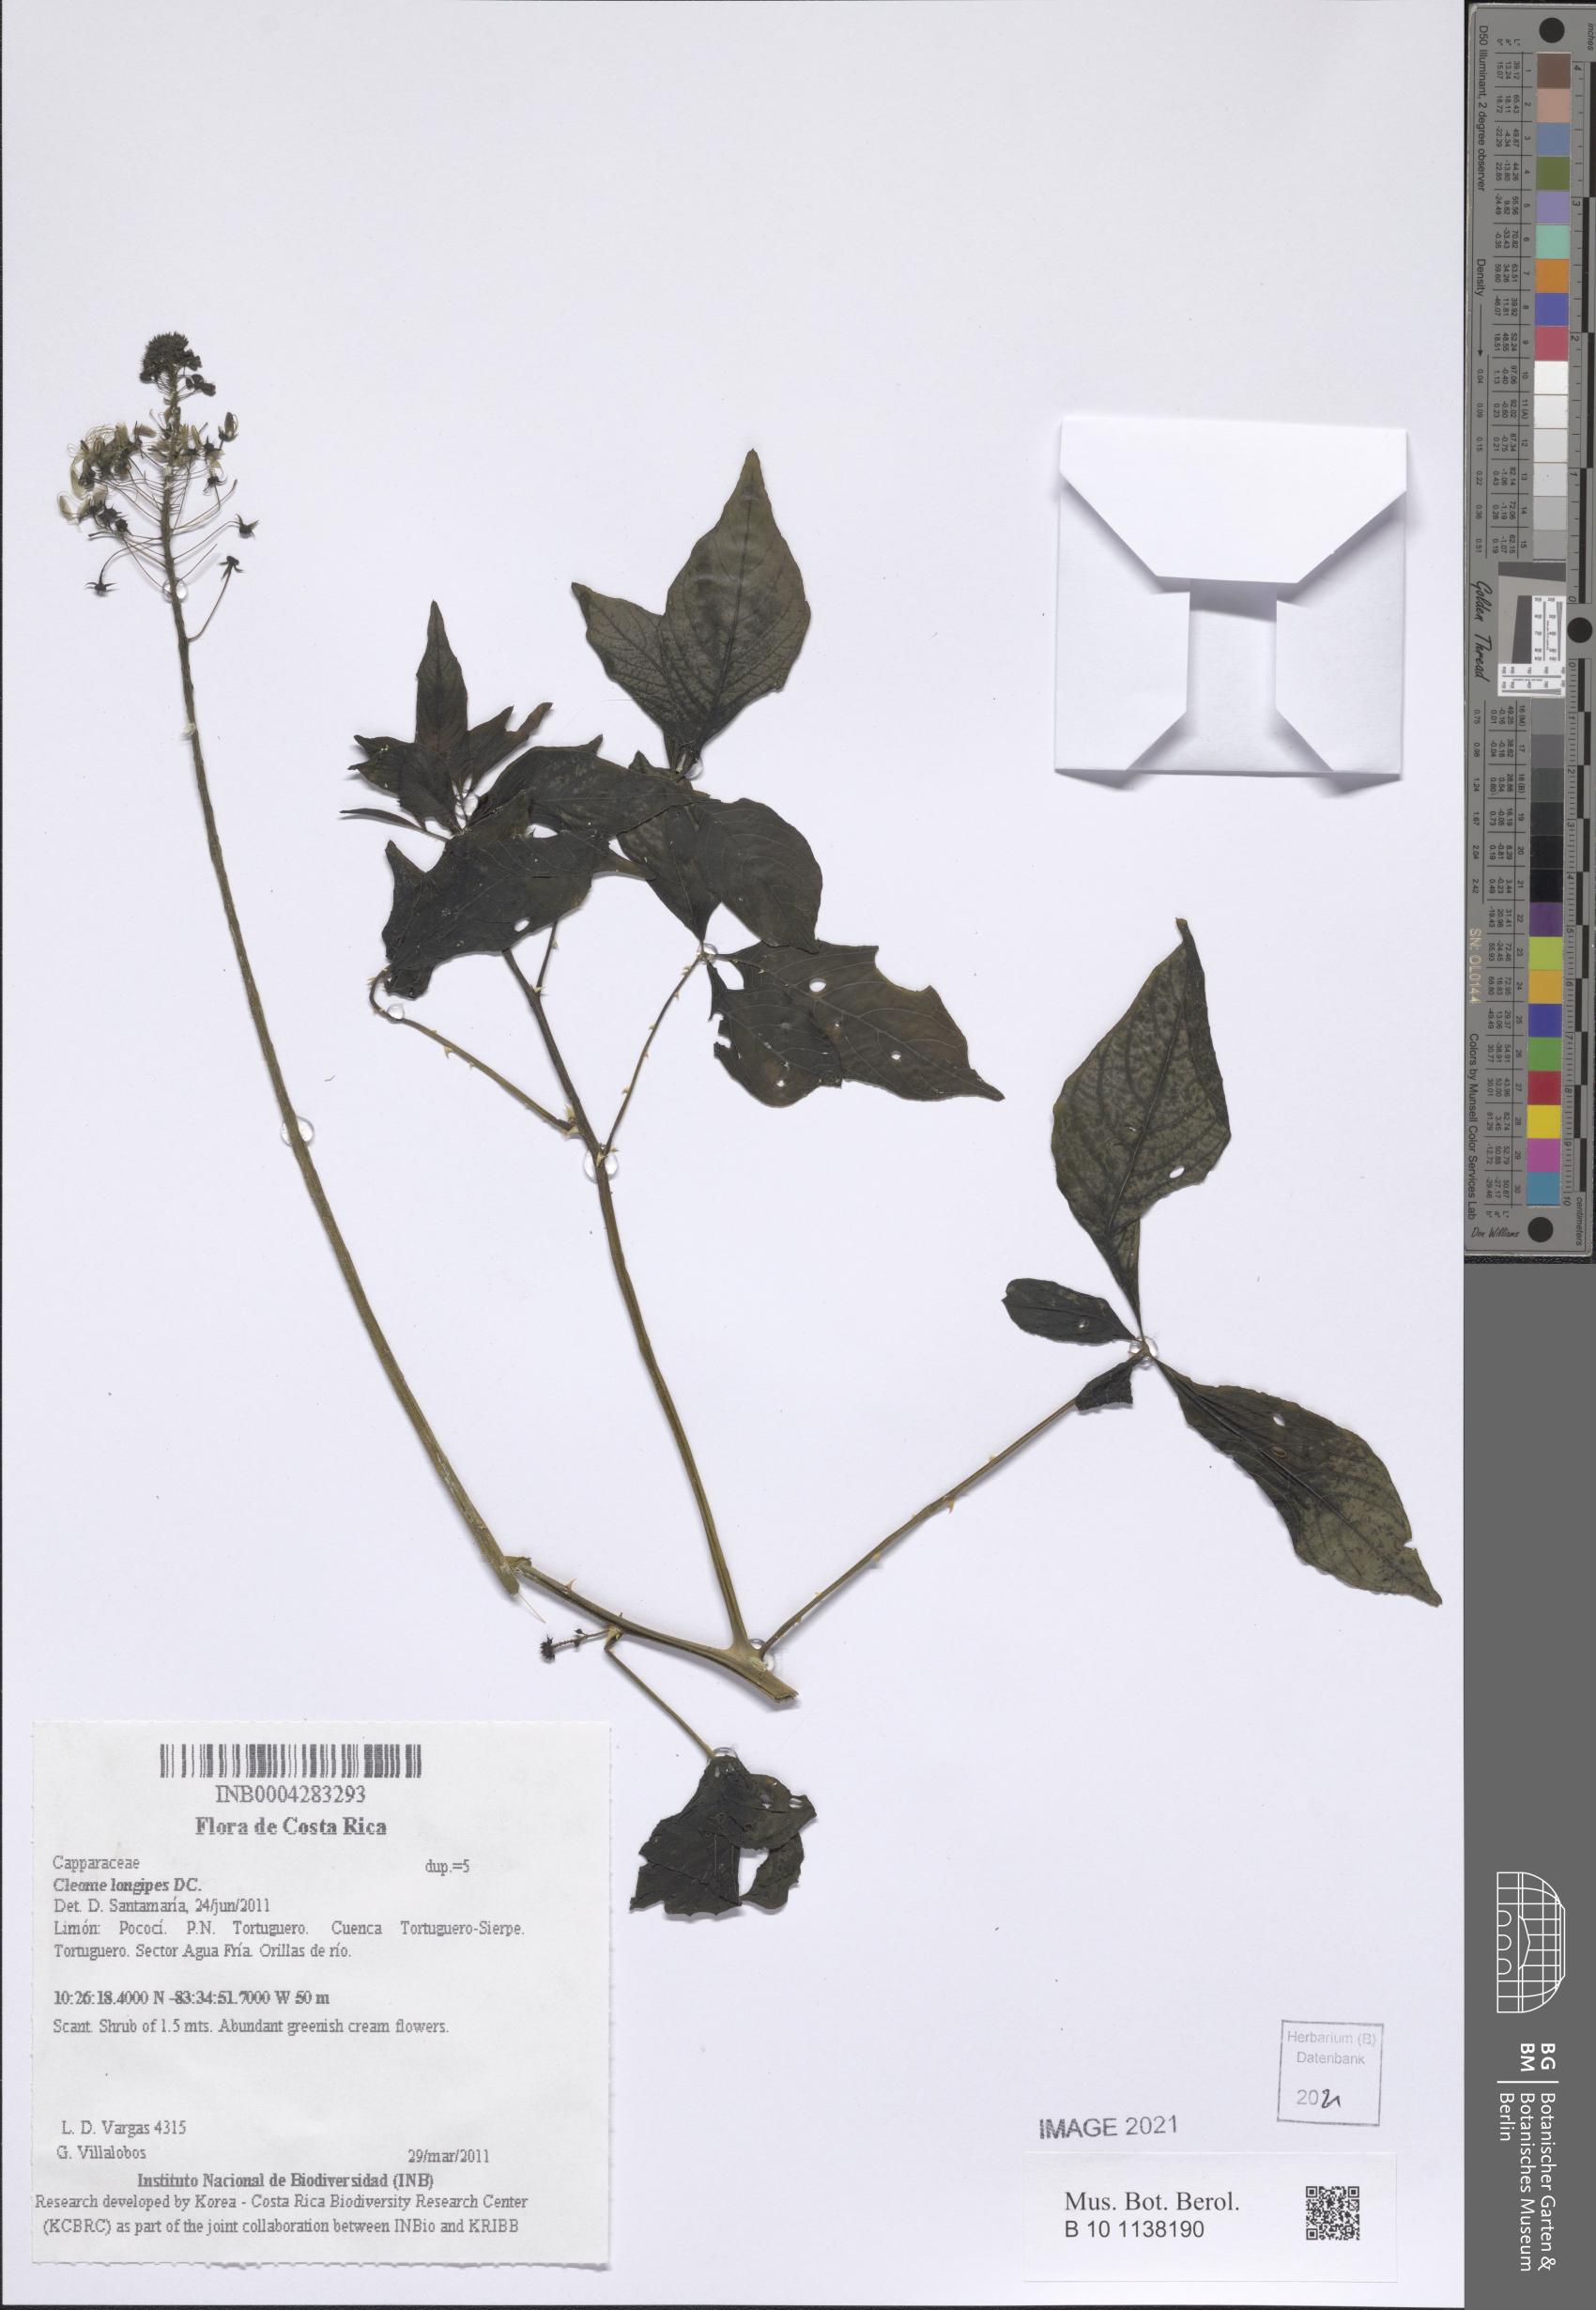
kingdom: Plantae
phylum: Tracheophyta
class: Magnoliopsida
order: Brassicales
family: Cleomaceae
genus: Tarenaya
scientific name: Tarenaya longipes
